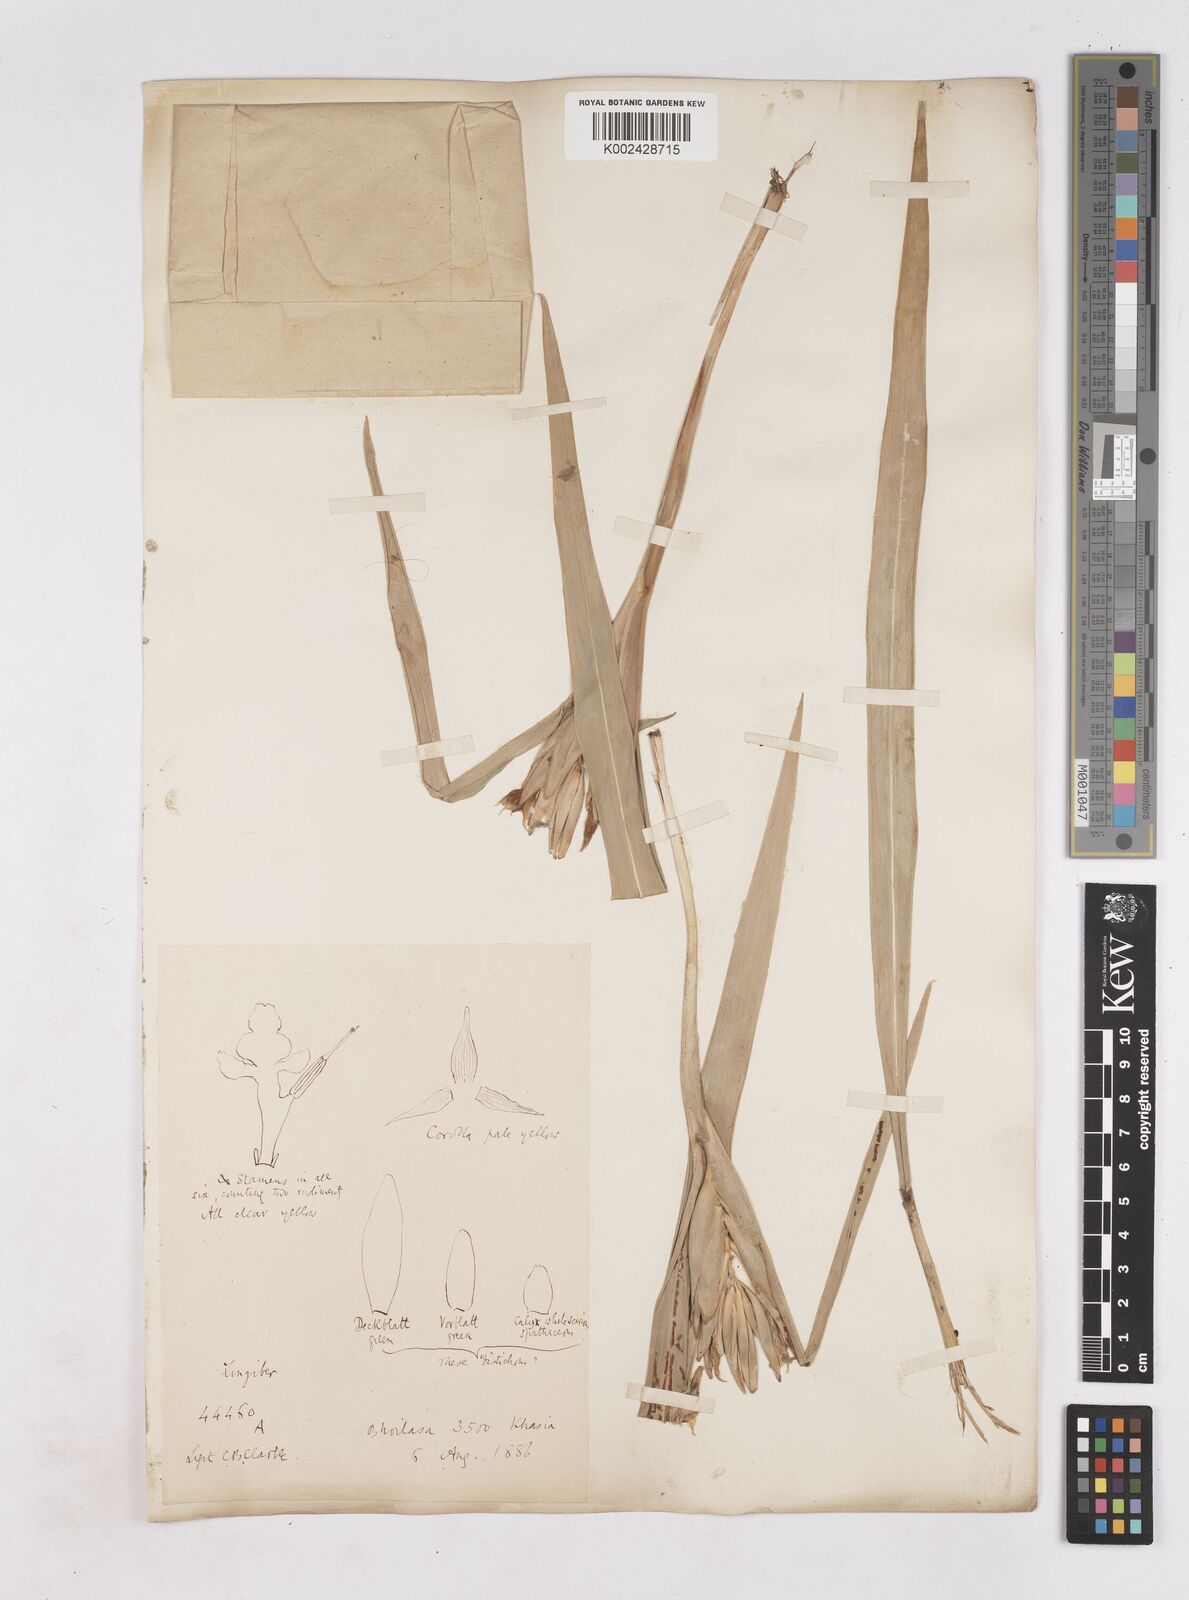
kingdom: Plantae
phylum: Tracheophyta
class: Liliopsida
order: Zingiberales
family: Zingiberaceae
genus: Zingiber
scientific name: Zingiber capitatum
